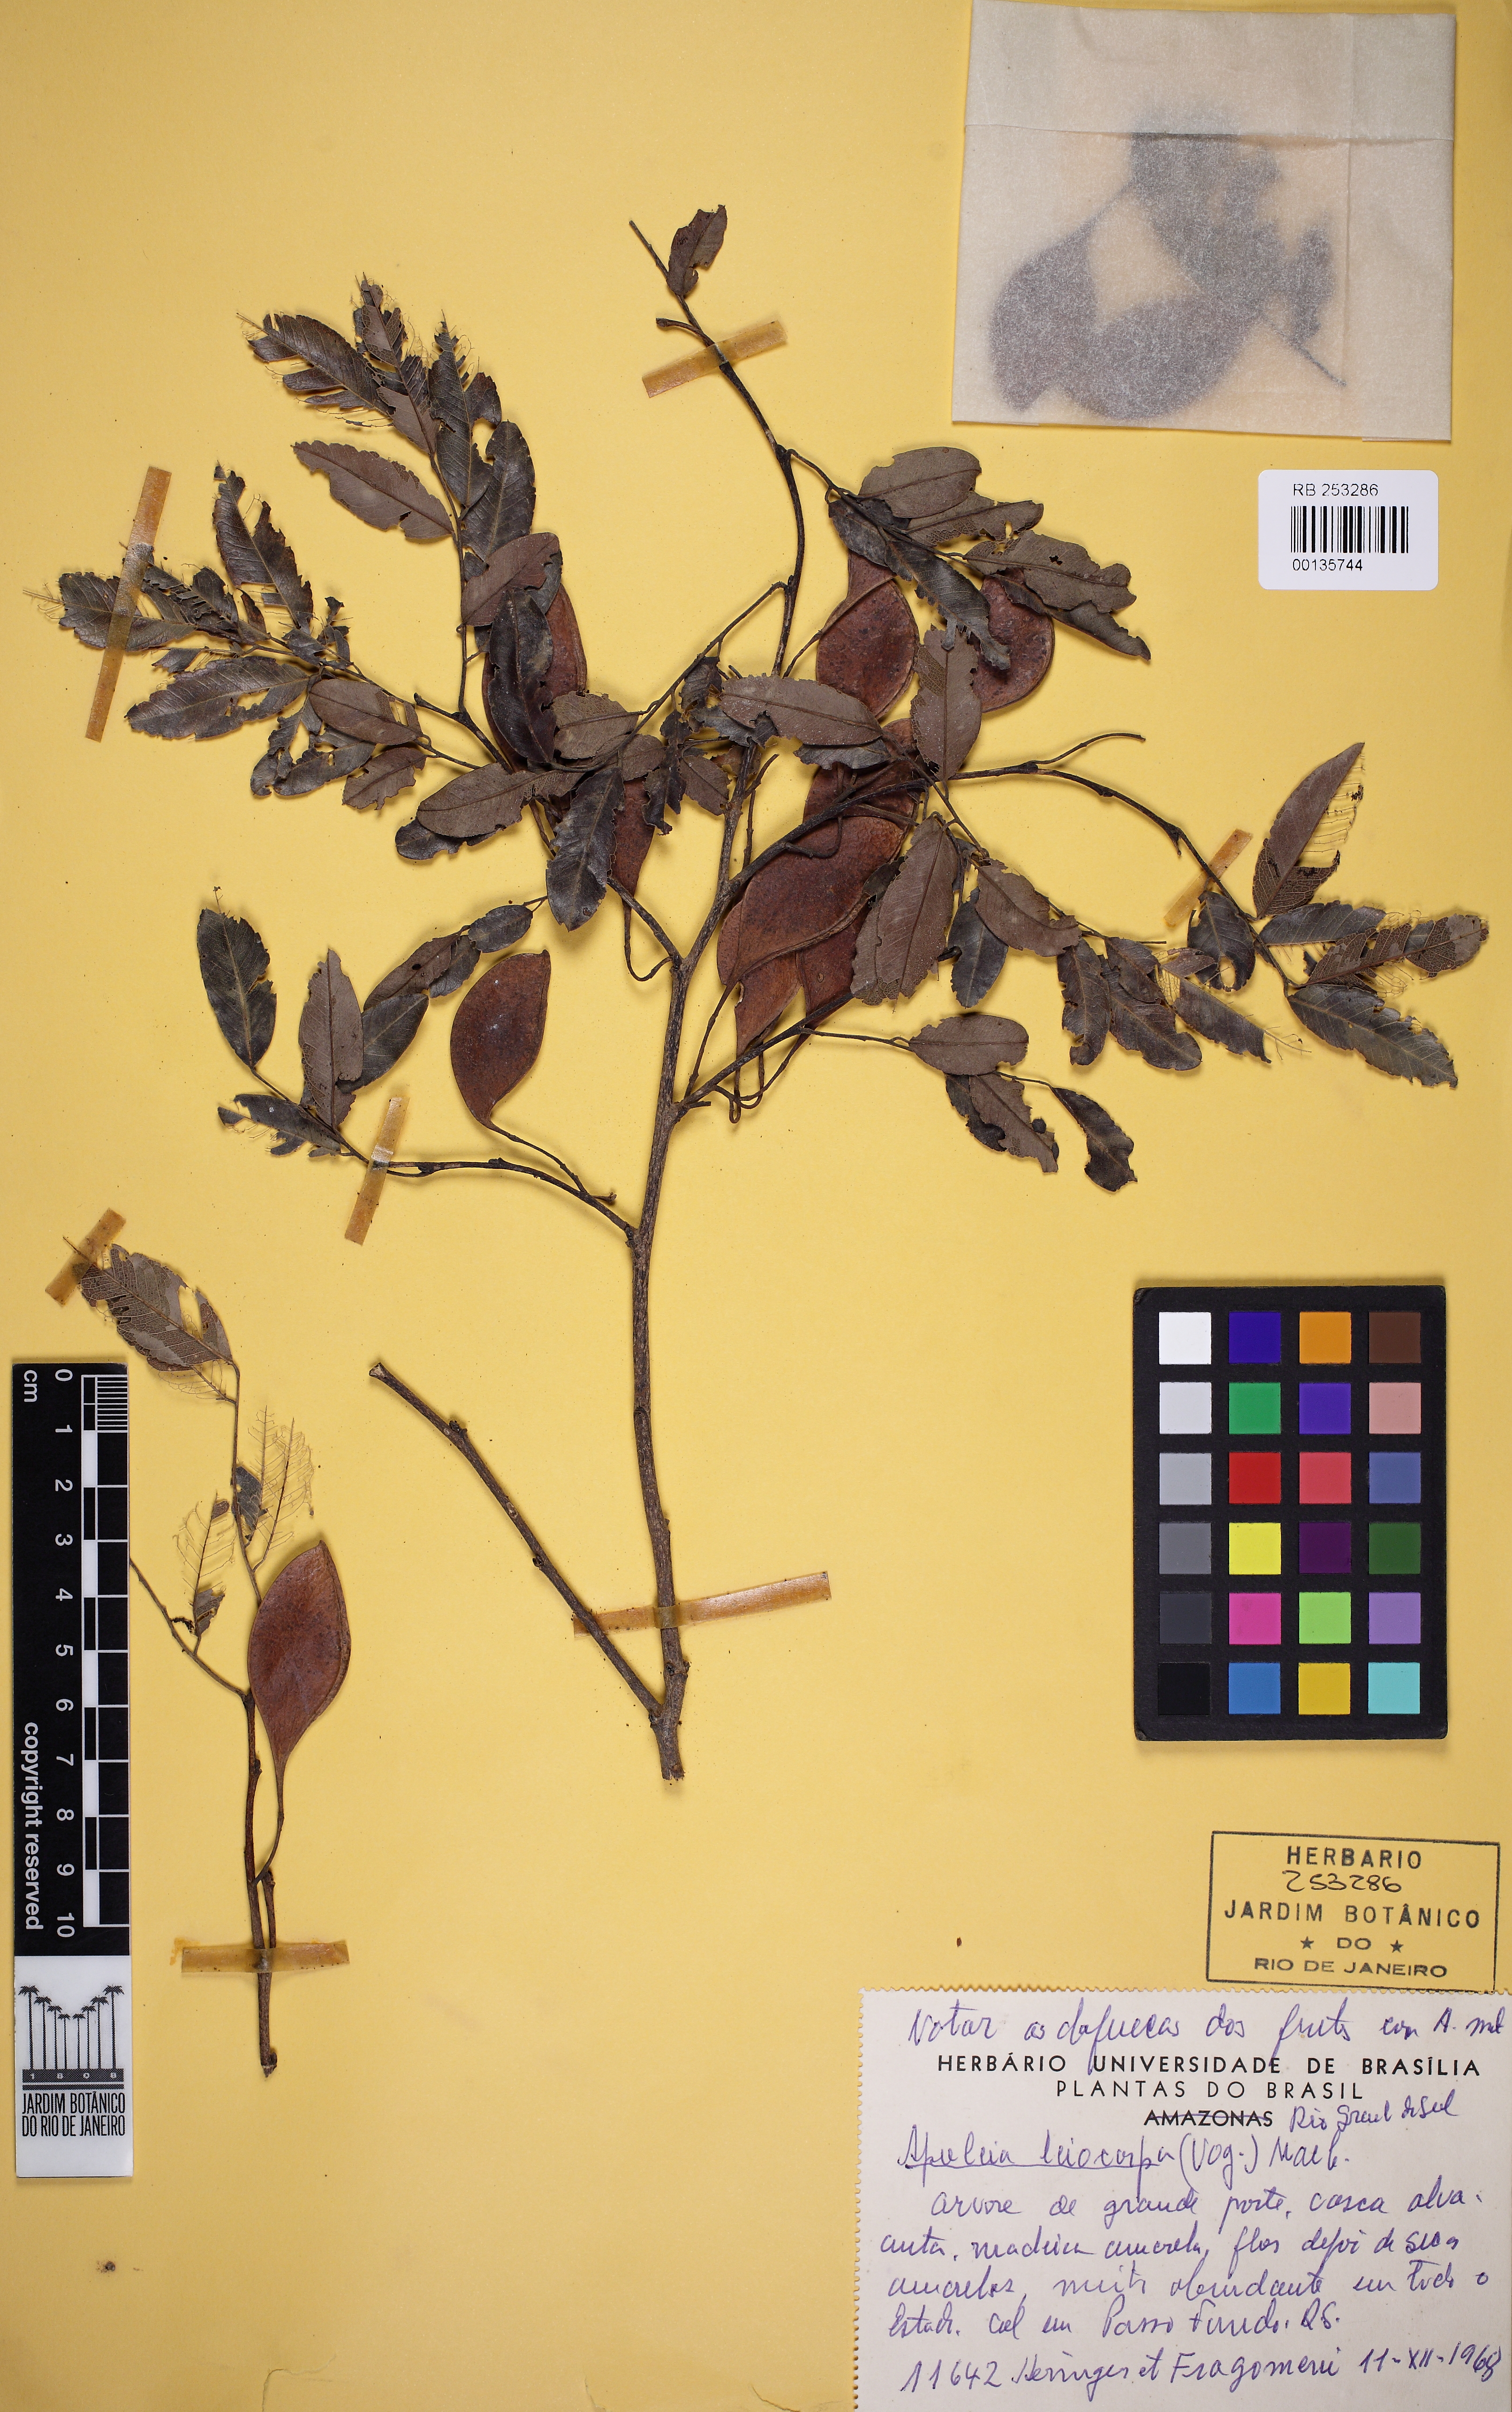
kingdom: Plantae
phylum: Tracheophyta
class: Magnoliopsida
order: Fabales
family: Fabaceae
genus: Apuleia
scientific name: Apuleia leiocarpa
